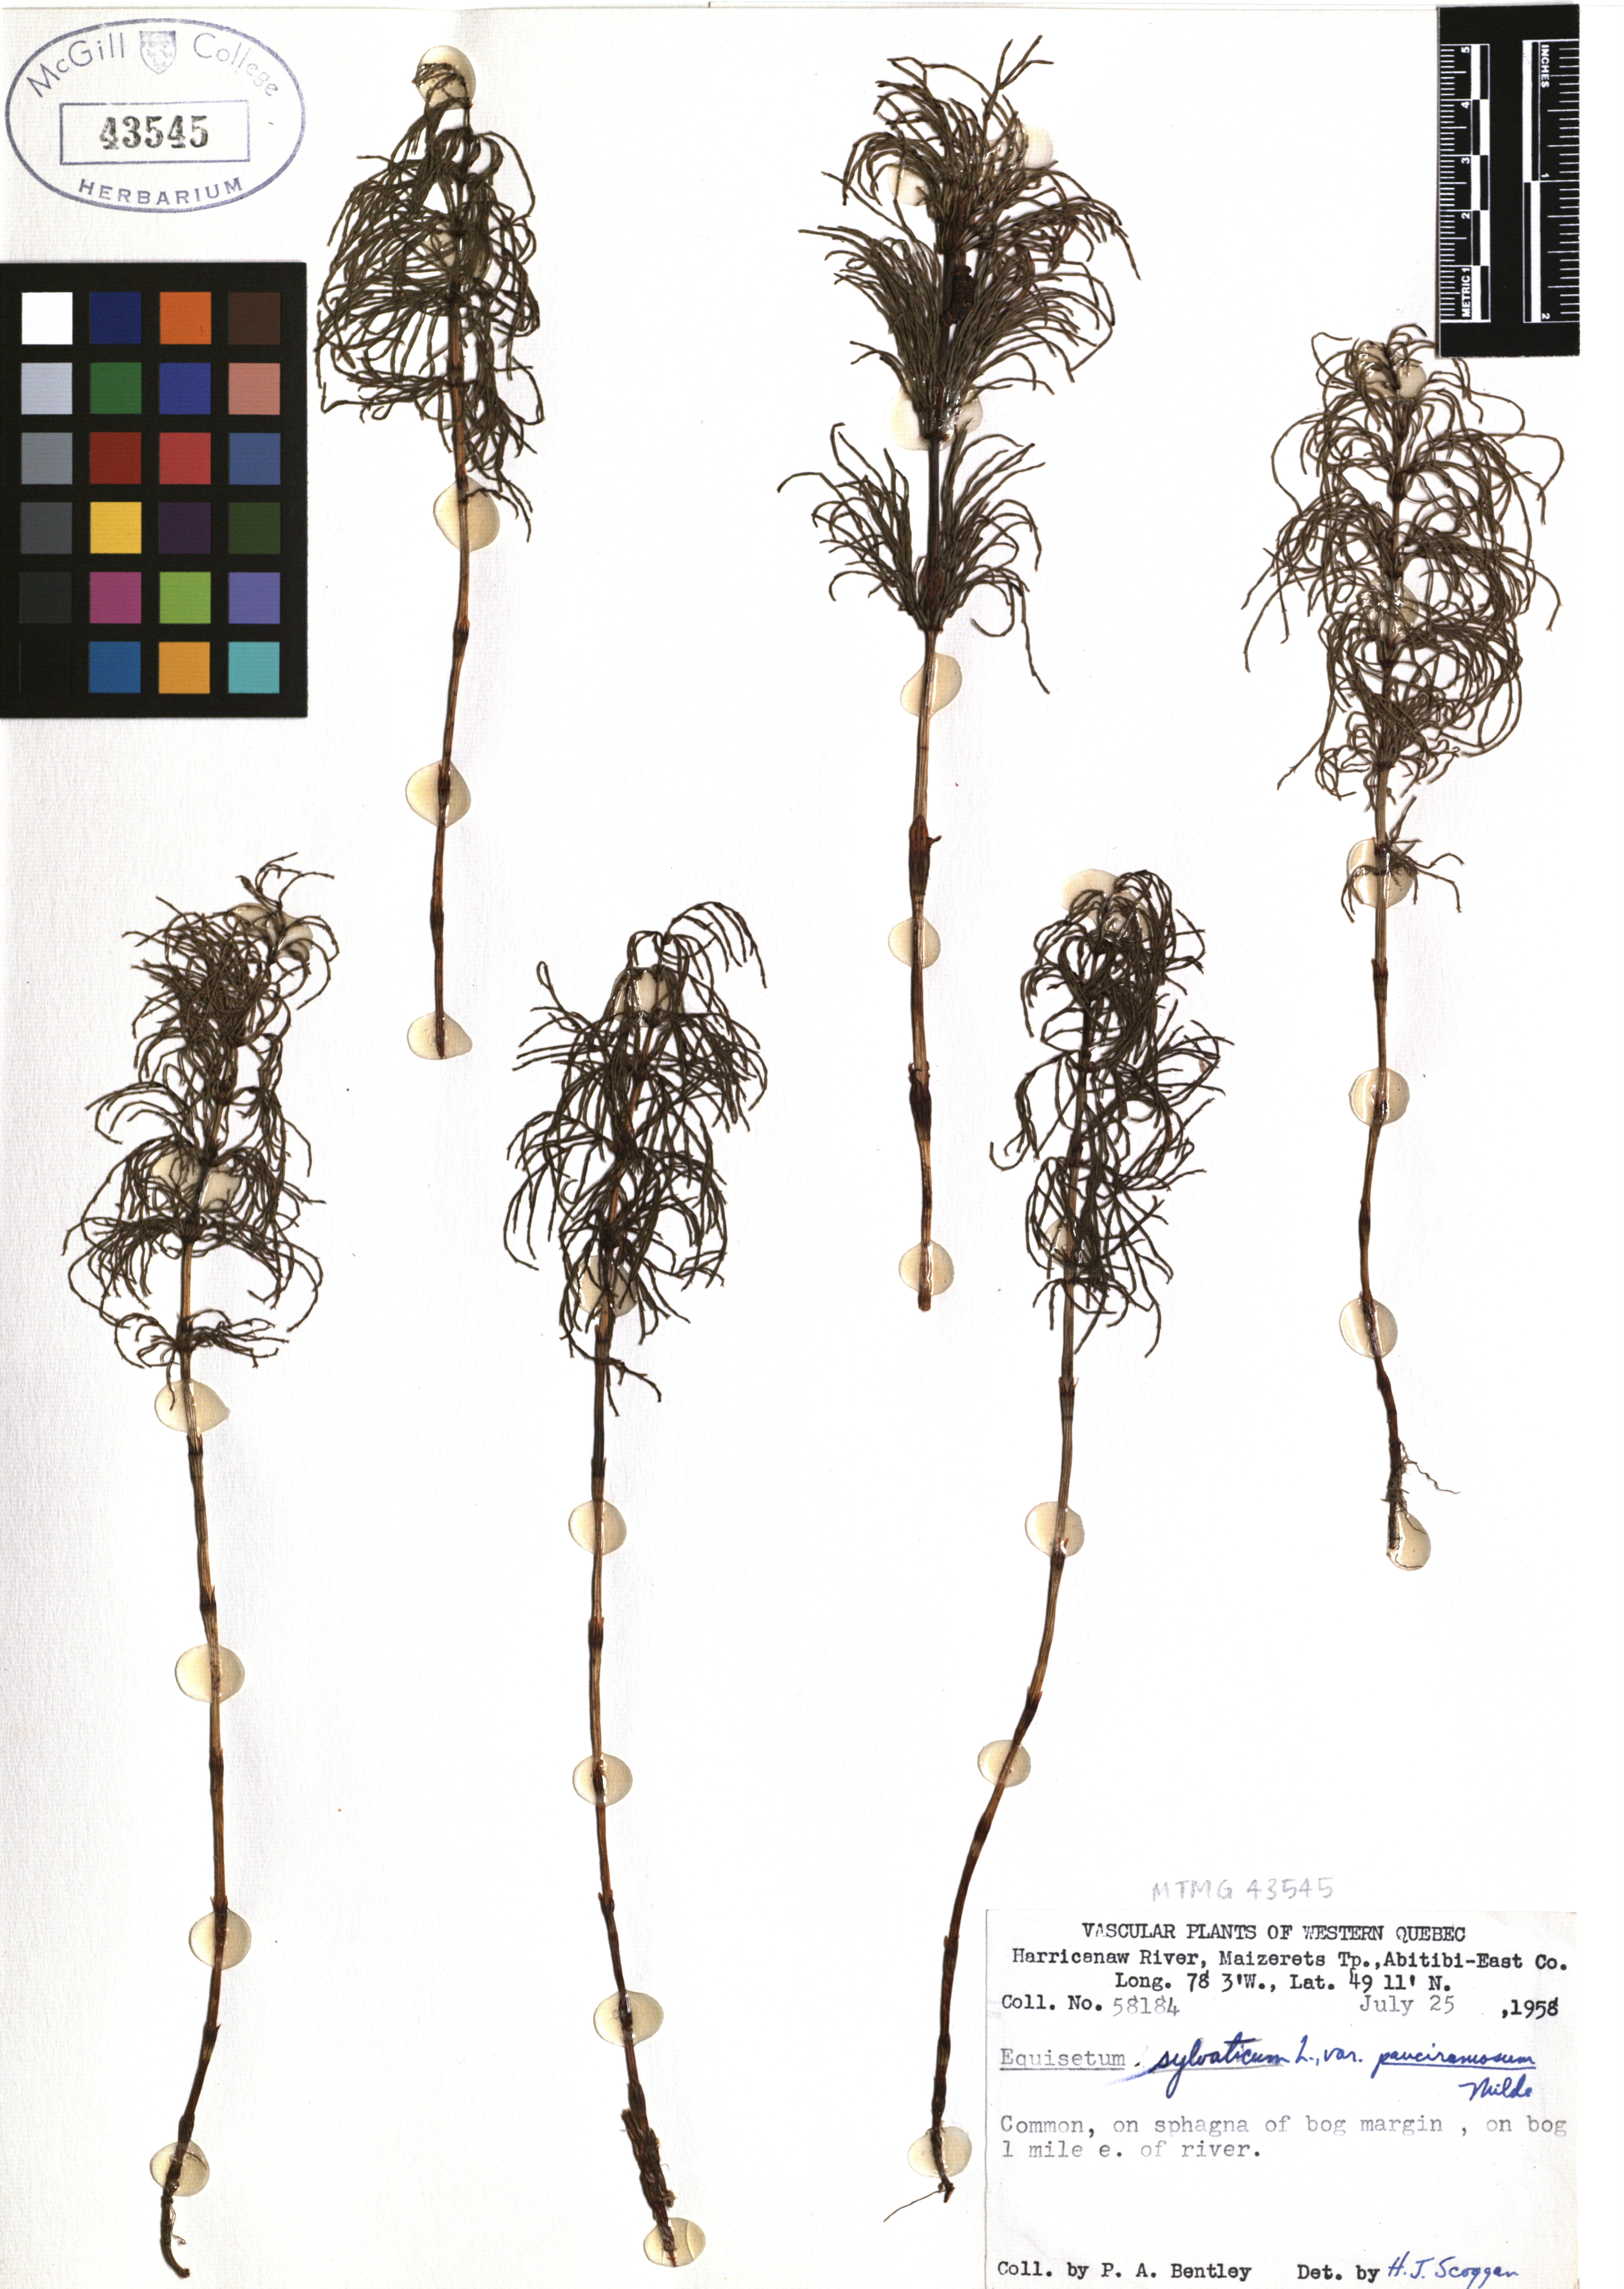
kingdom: Plantae
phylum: Tracheophyta
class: Polypodiopsida
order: Equisetales
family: Equisetaceae
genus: Equisetum
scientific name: Equisetum sylvaticum
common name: Wood horsetail
